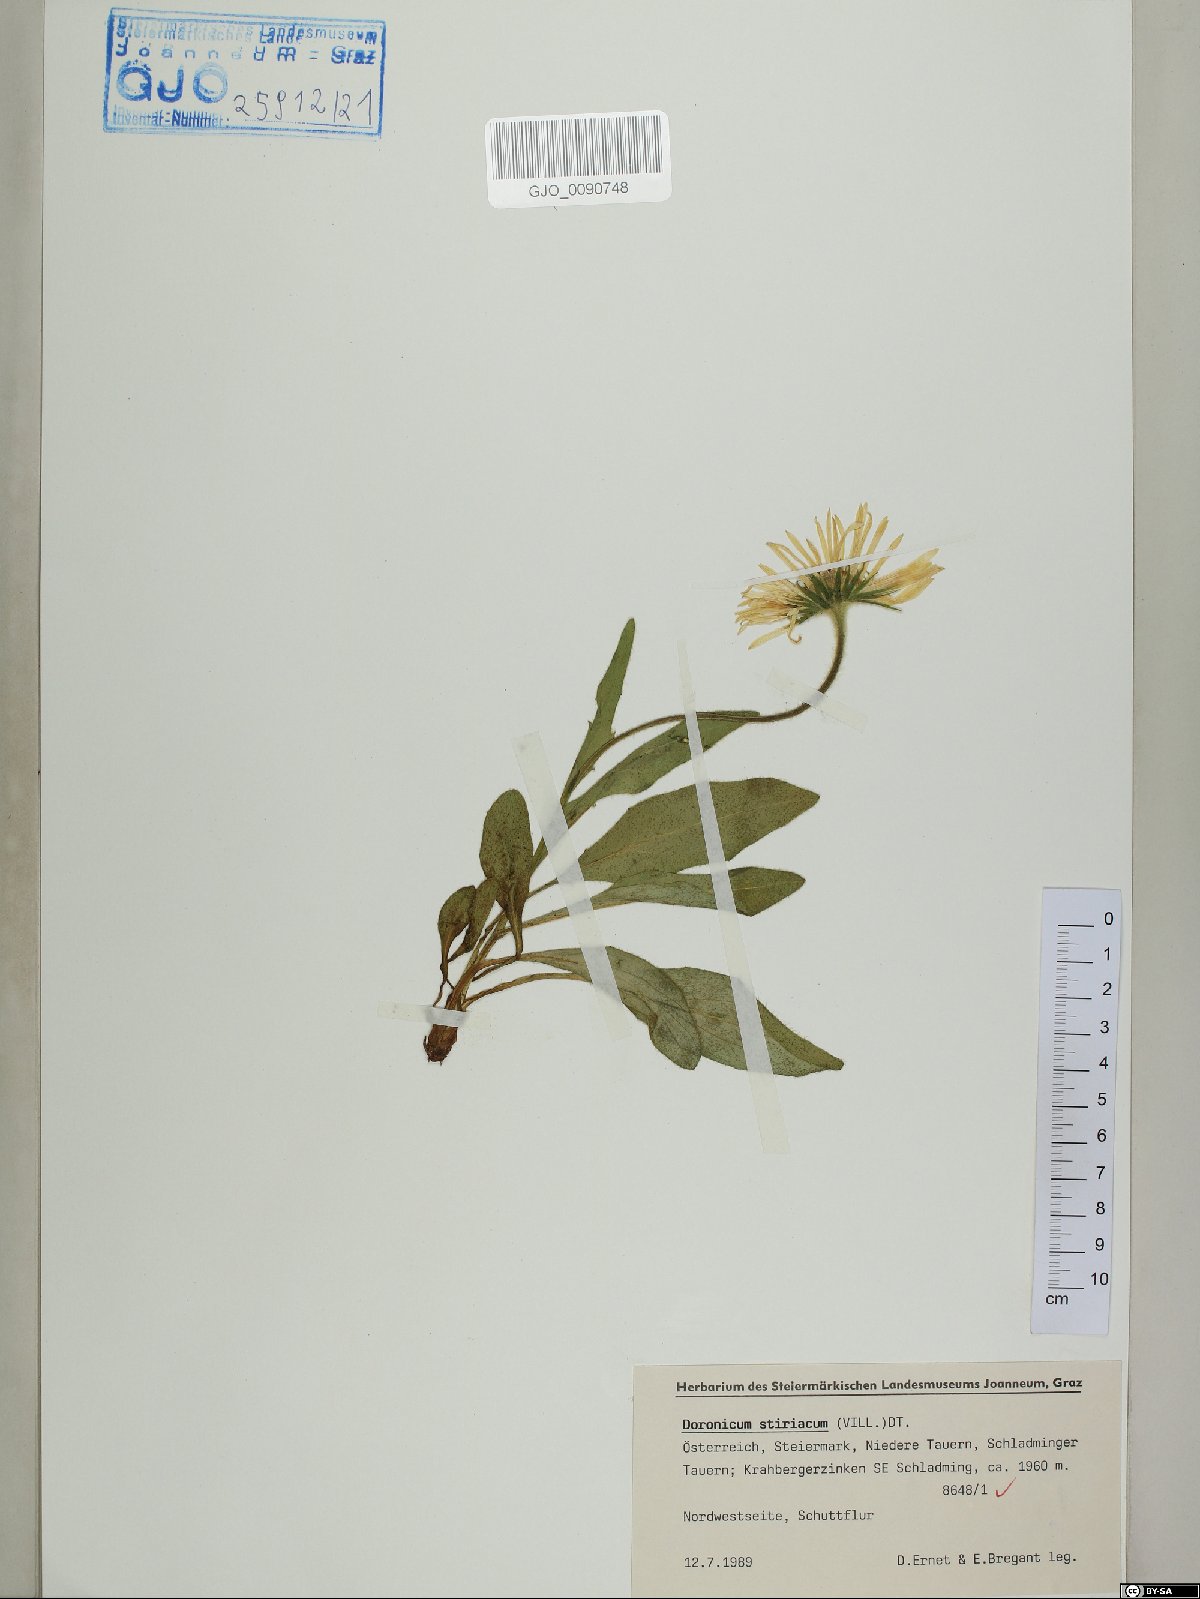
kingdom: Plantae
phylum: Tracheophyta
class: Magnoliopsida
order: Asterales
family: Asteraceae
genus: Doronicum
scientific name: Doronicum clusii
